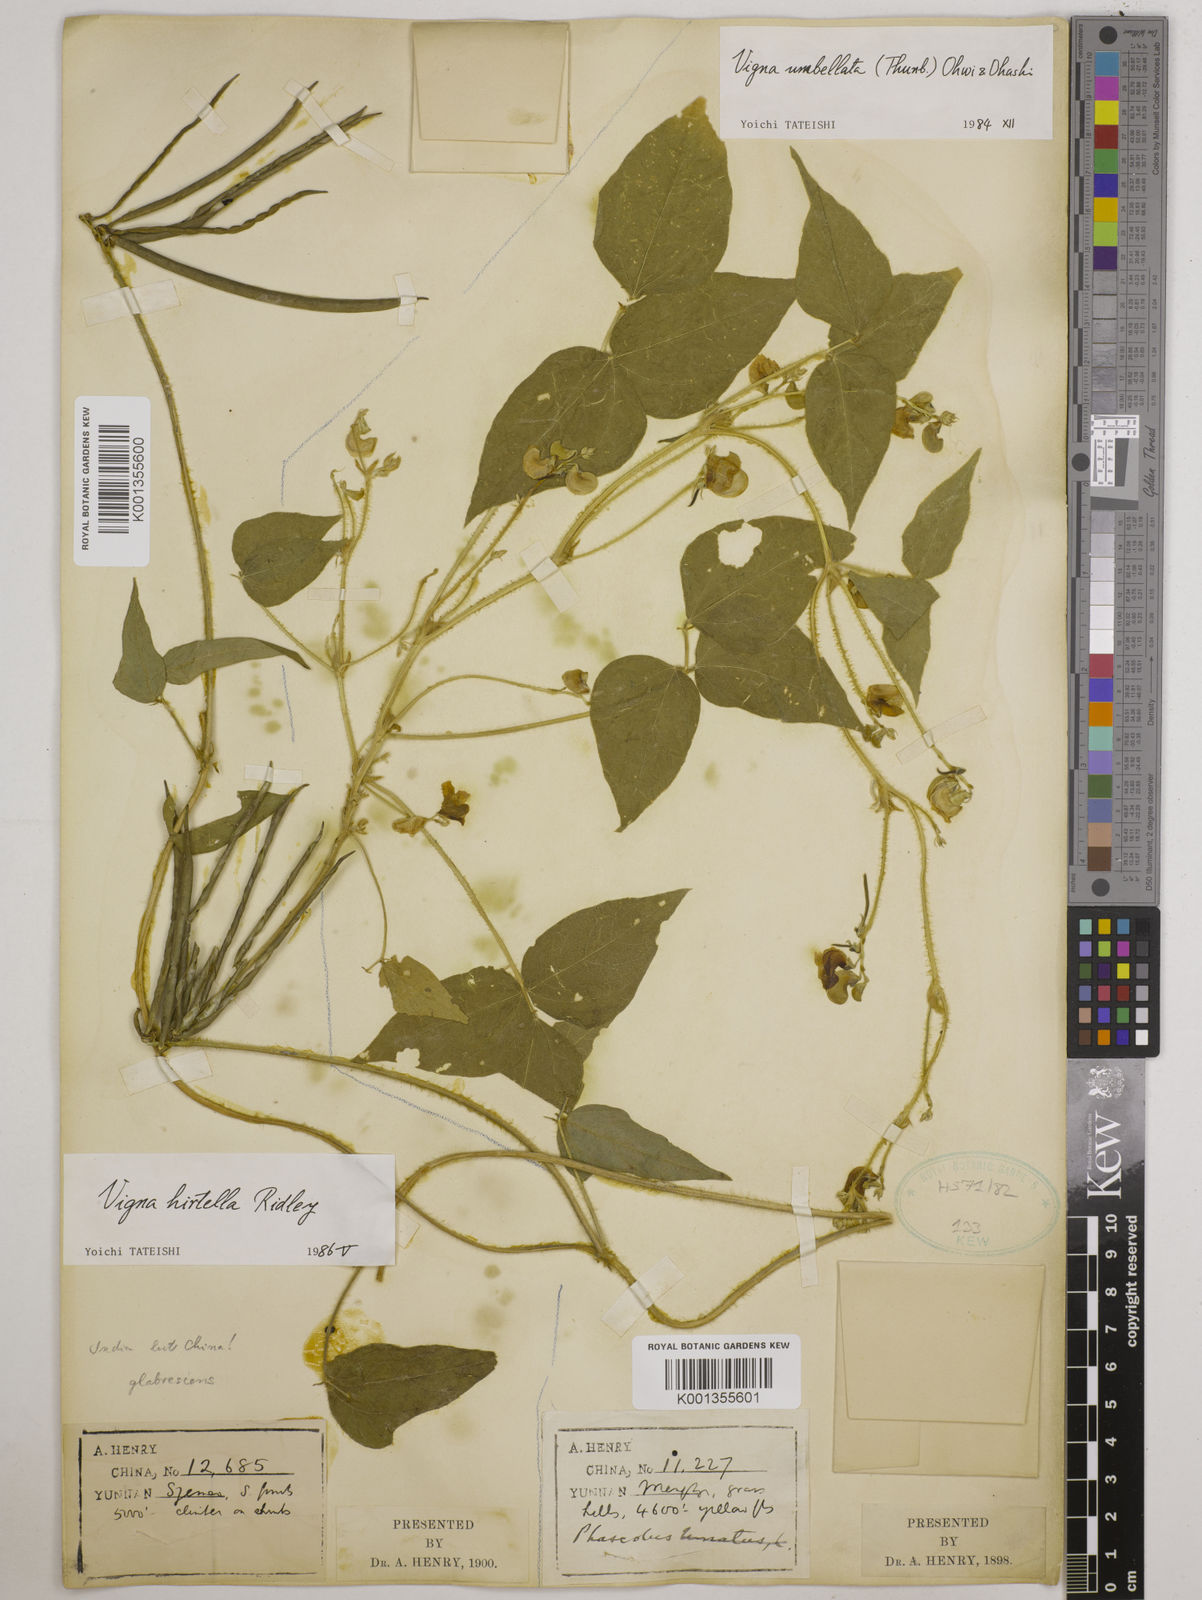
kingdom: Plantae
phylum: Tracheophyta
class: Magnoliopsida
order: Fabales
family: Fabaceae
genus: Vigna
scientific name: Vigna umbellata
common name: Oriental-bean
